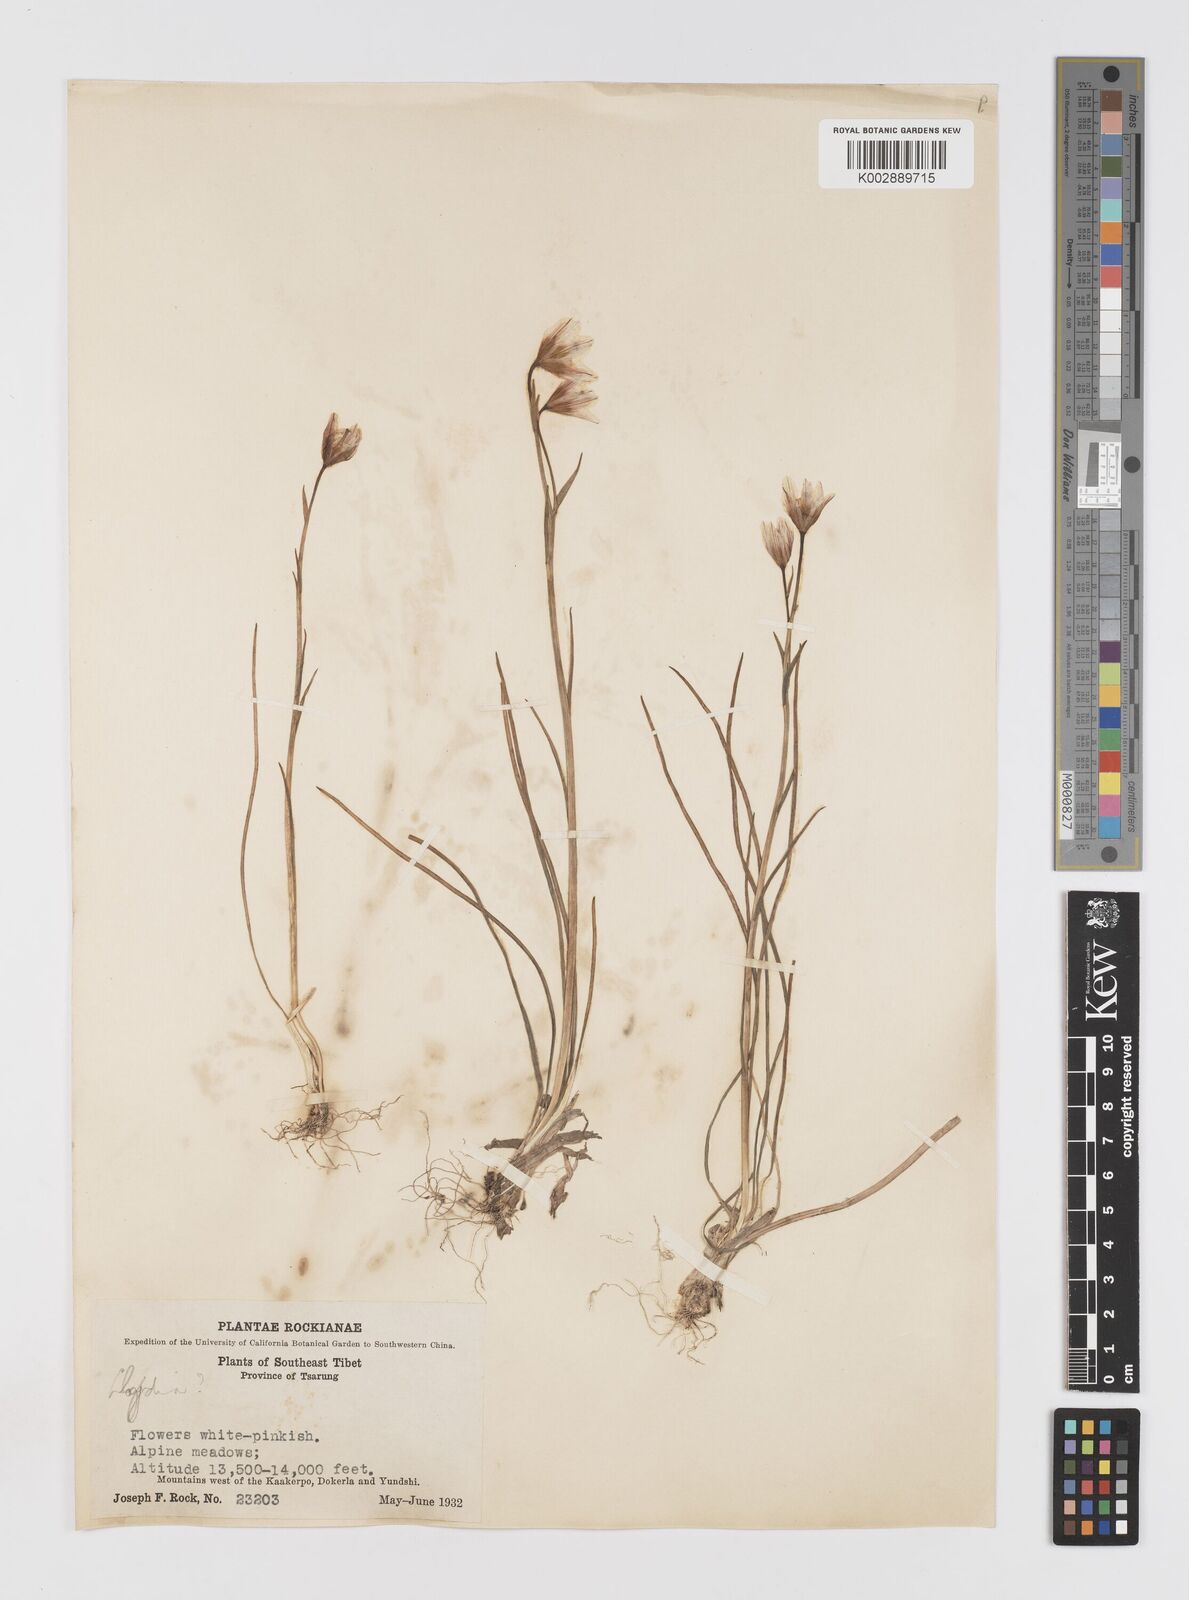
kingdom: Plantae
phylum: Tracheophyta
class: Liliopsida
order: Liliales
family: Liliaceae
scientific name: Liliaceae
